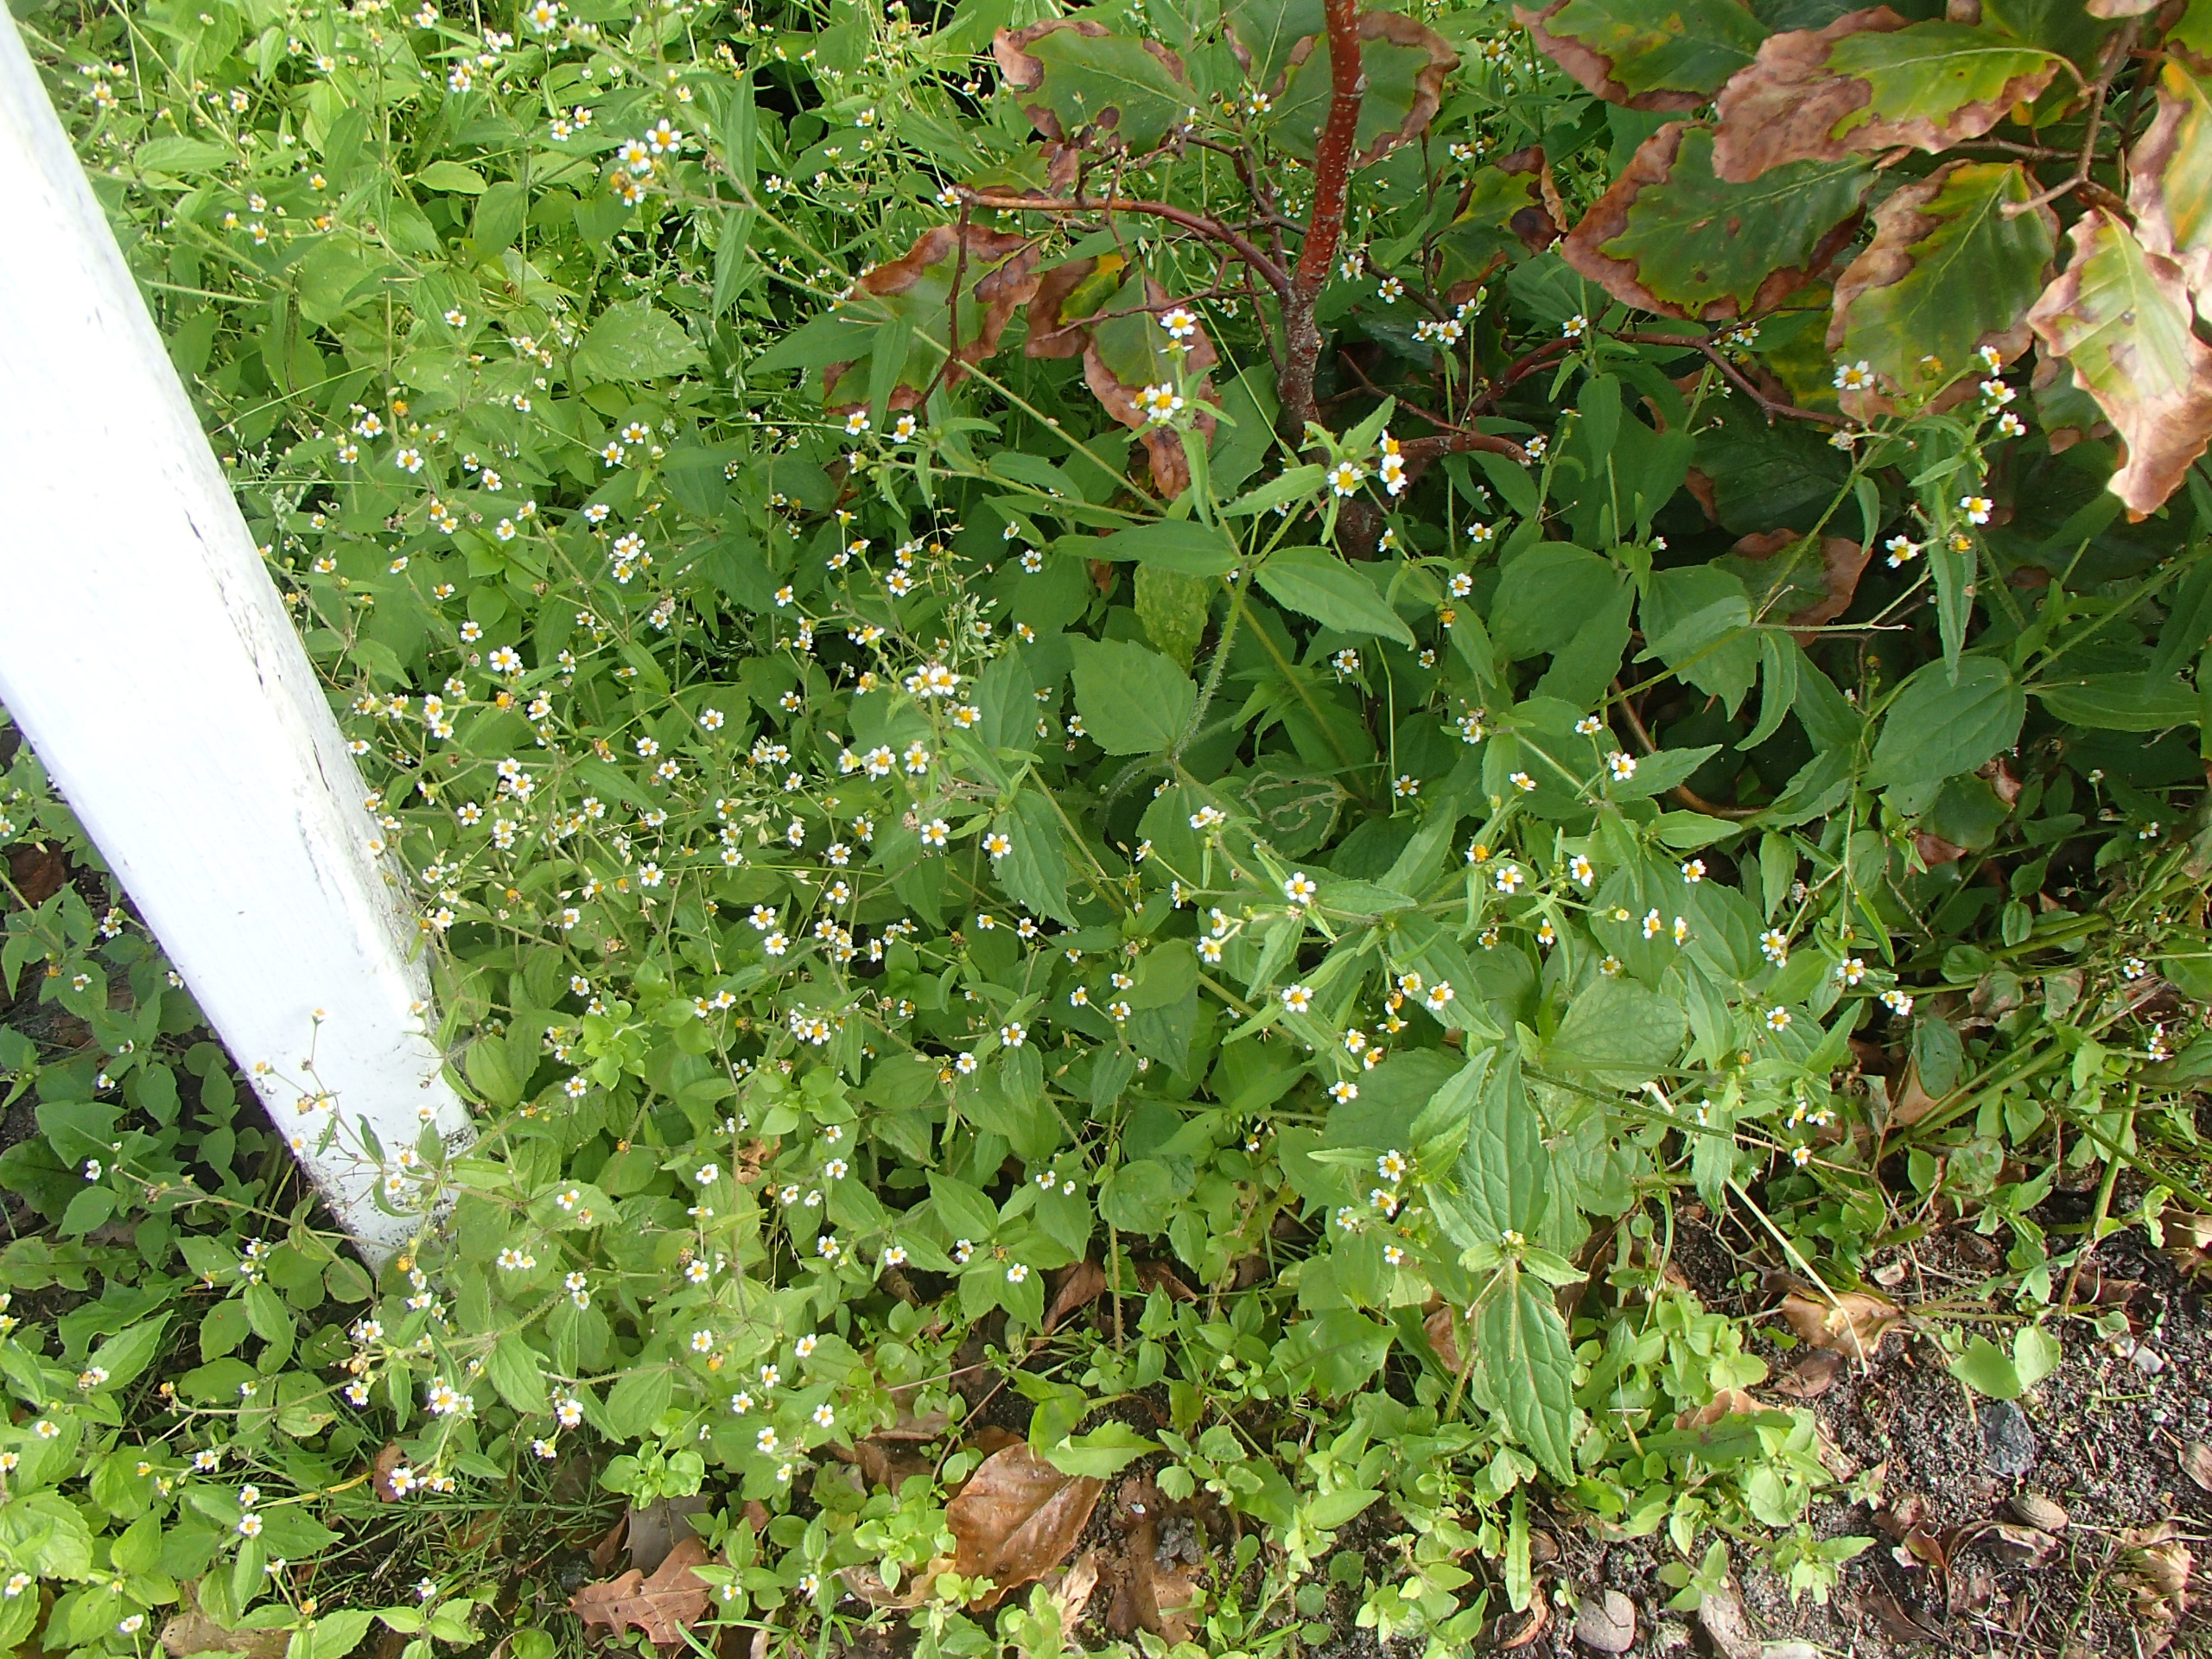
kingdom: Plantae
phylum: Tracheophyta
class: Magnoliopsida
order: Asterales
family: Asteraceae
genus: Galinsoga
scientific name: Galinsoga quadriradiata
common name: Kirtel-kortstråle
